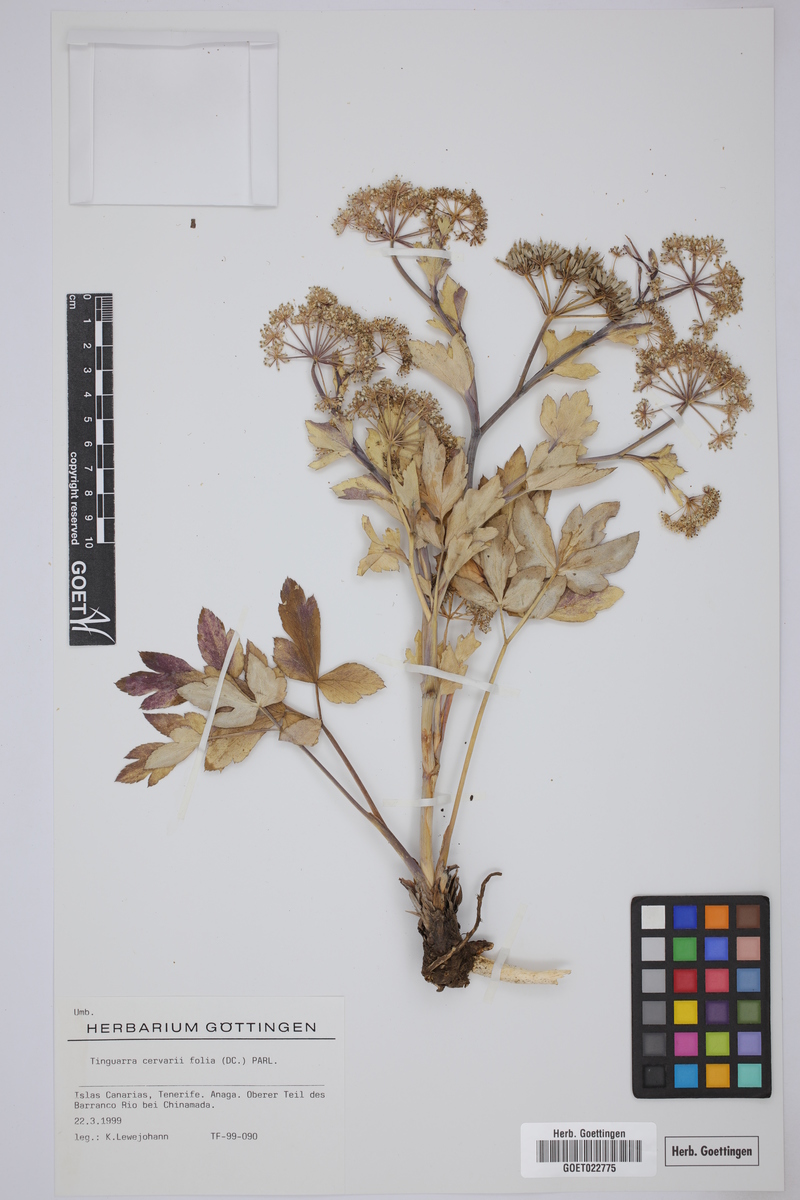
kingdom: Plantae
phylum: Tracheophyta
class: Magnoliopsida
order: Apiales
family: Apiaceae
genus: Athamanta
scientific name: Athamanta cervariifolia
